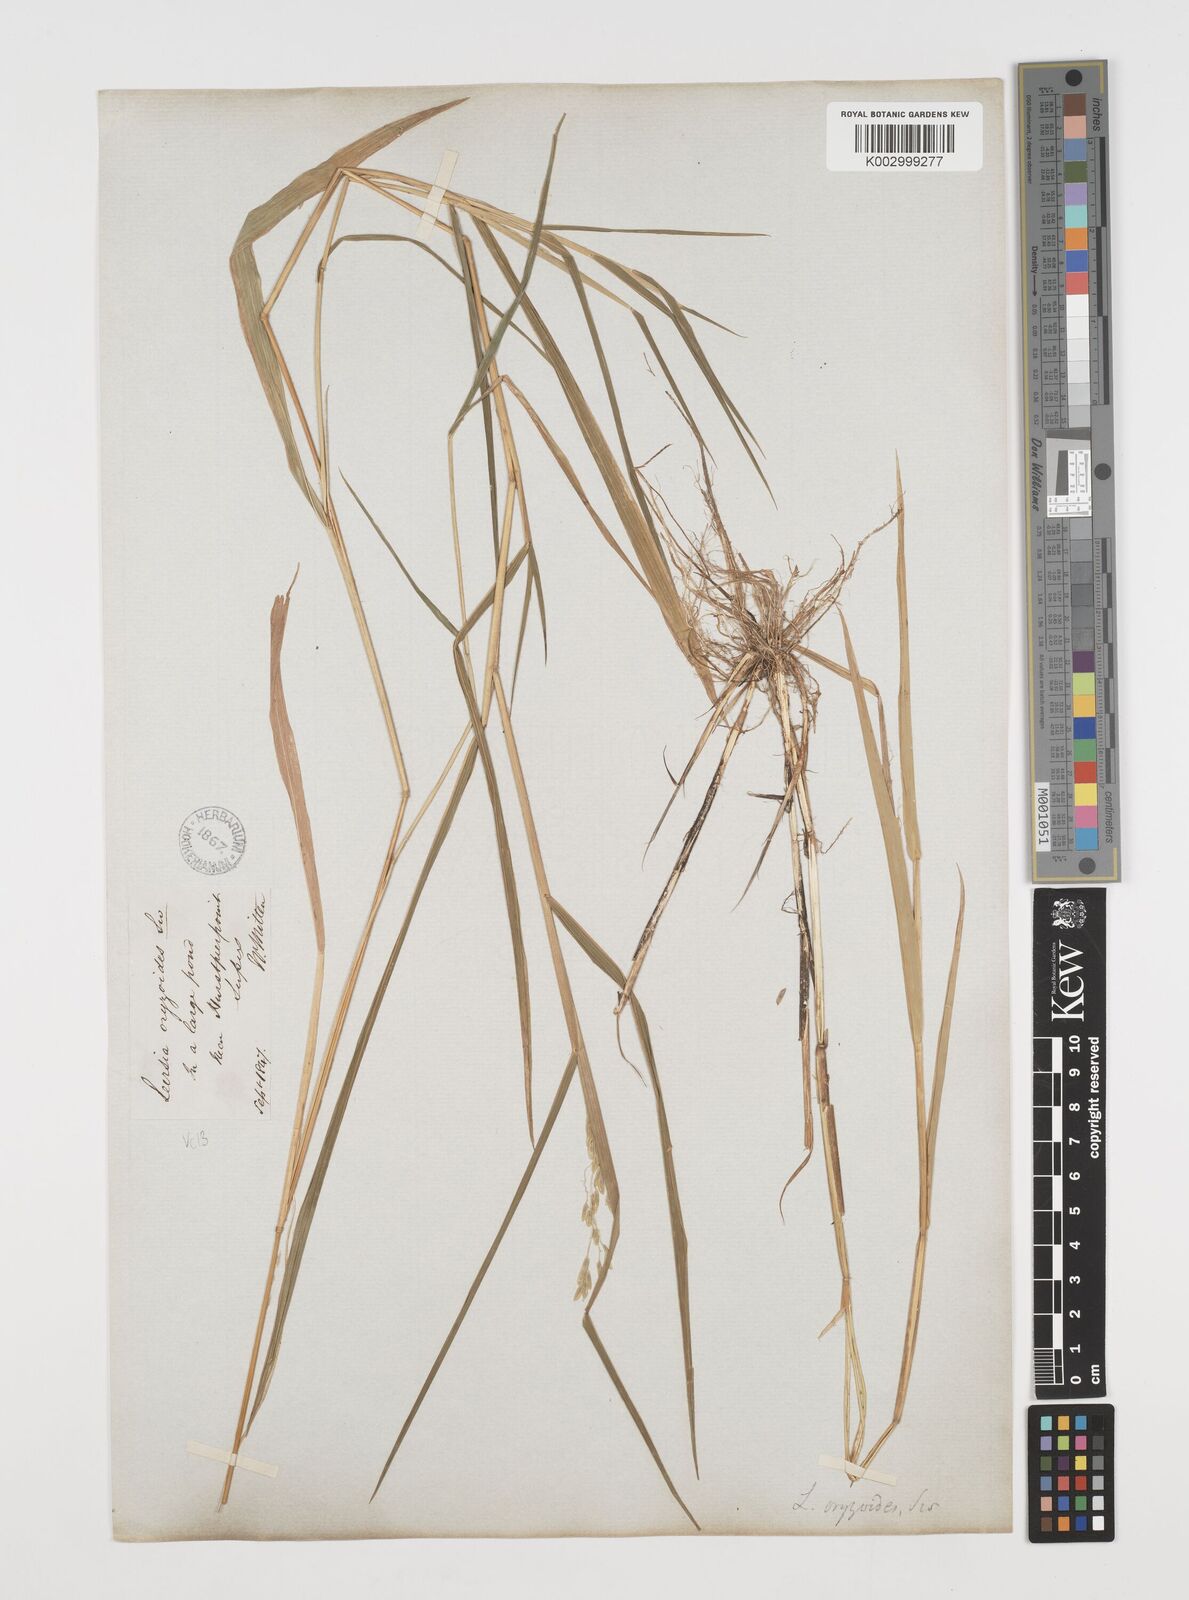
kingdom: Plantae
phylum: Tracheophyta
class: Liliopsida
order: Poales
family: Poaceae
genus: Leersia
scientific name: Leersia oryzoides
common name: Cut-grass
